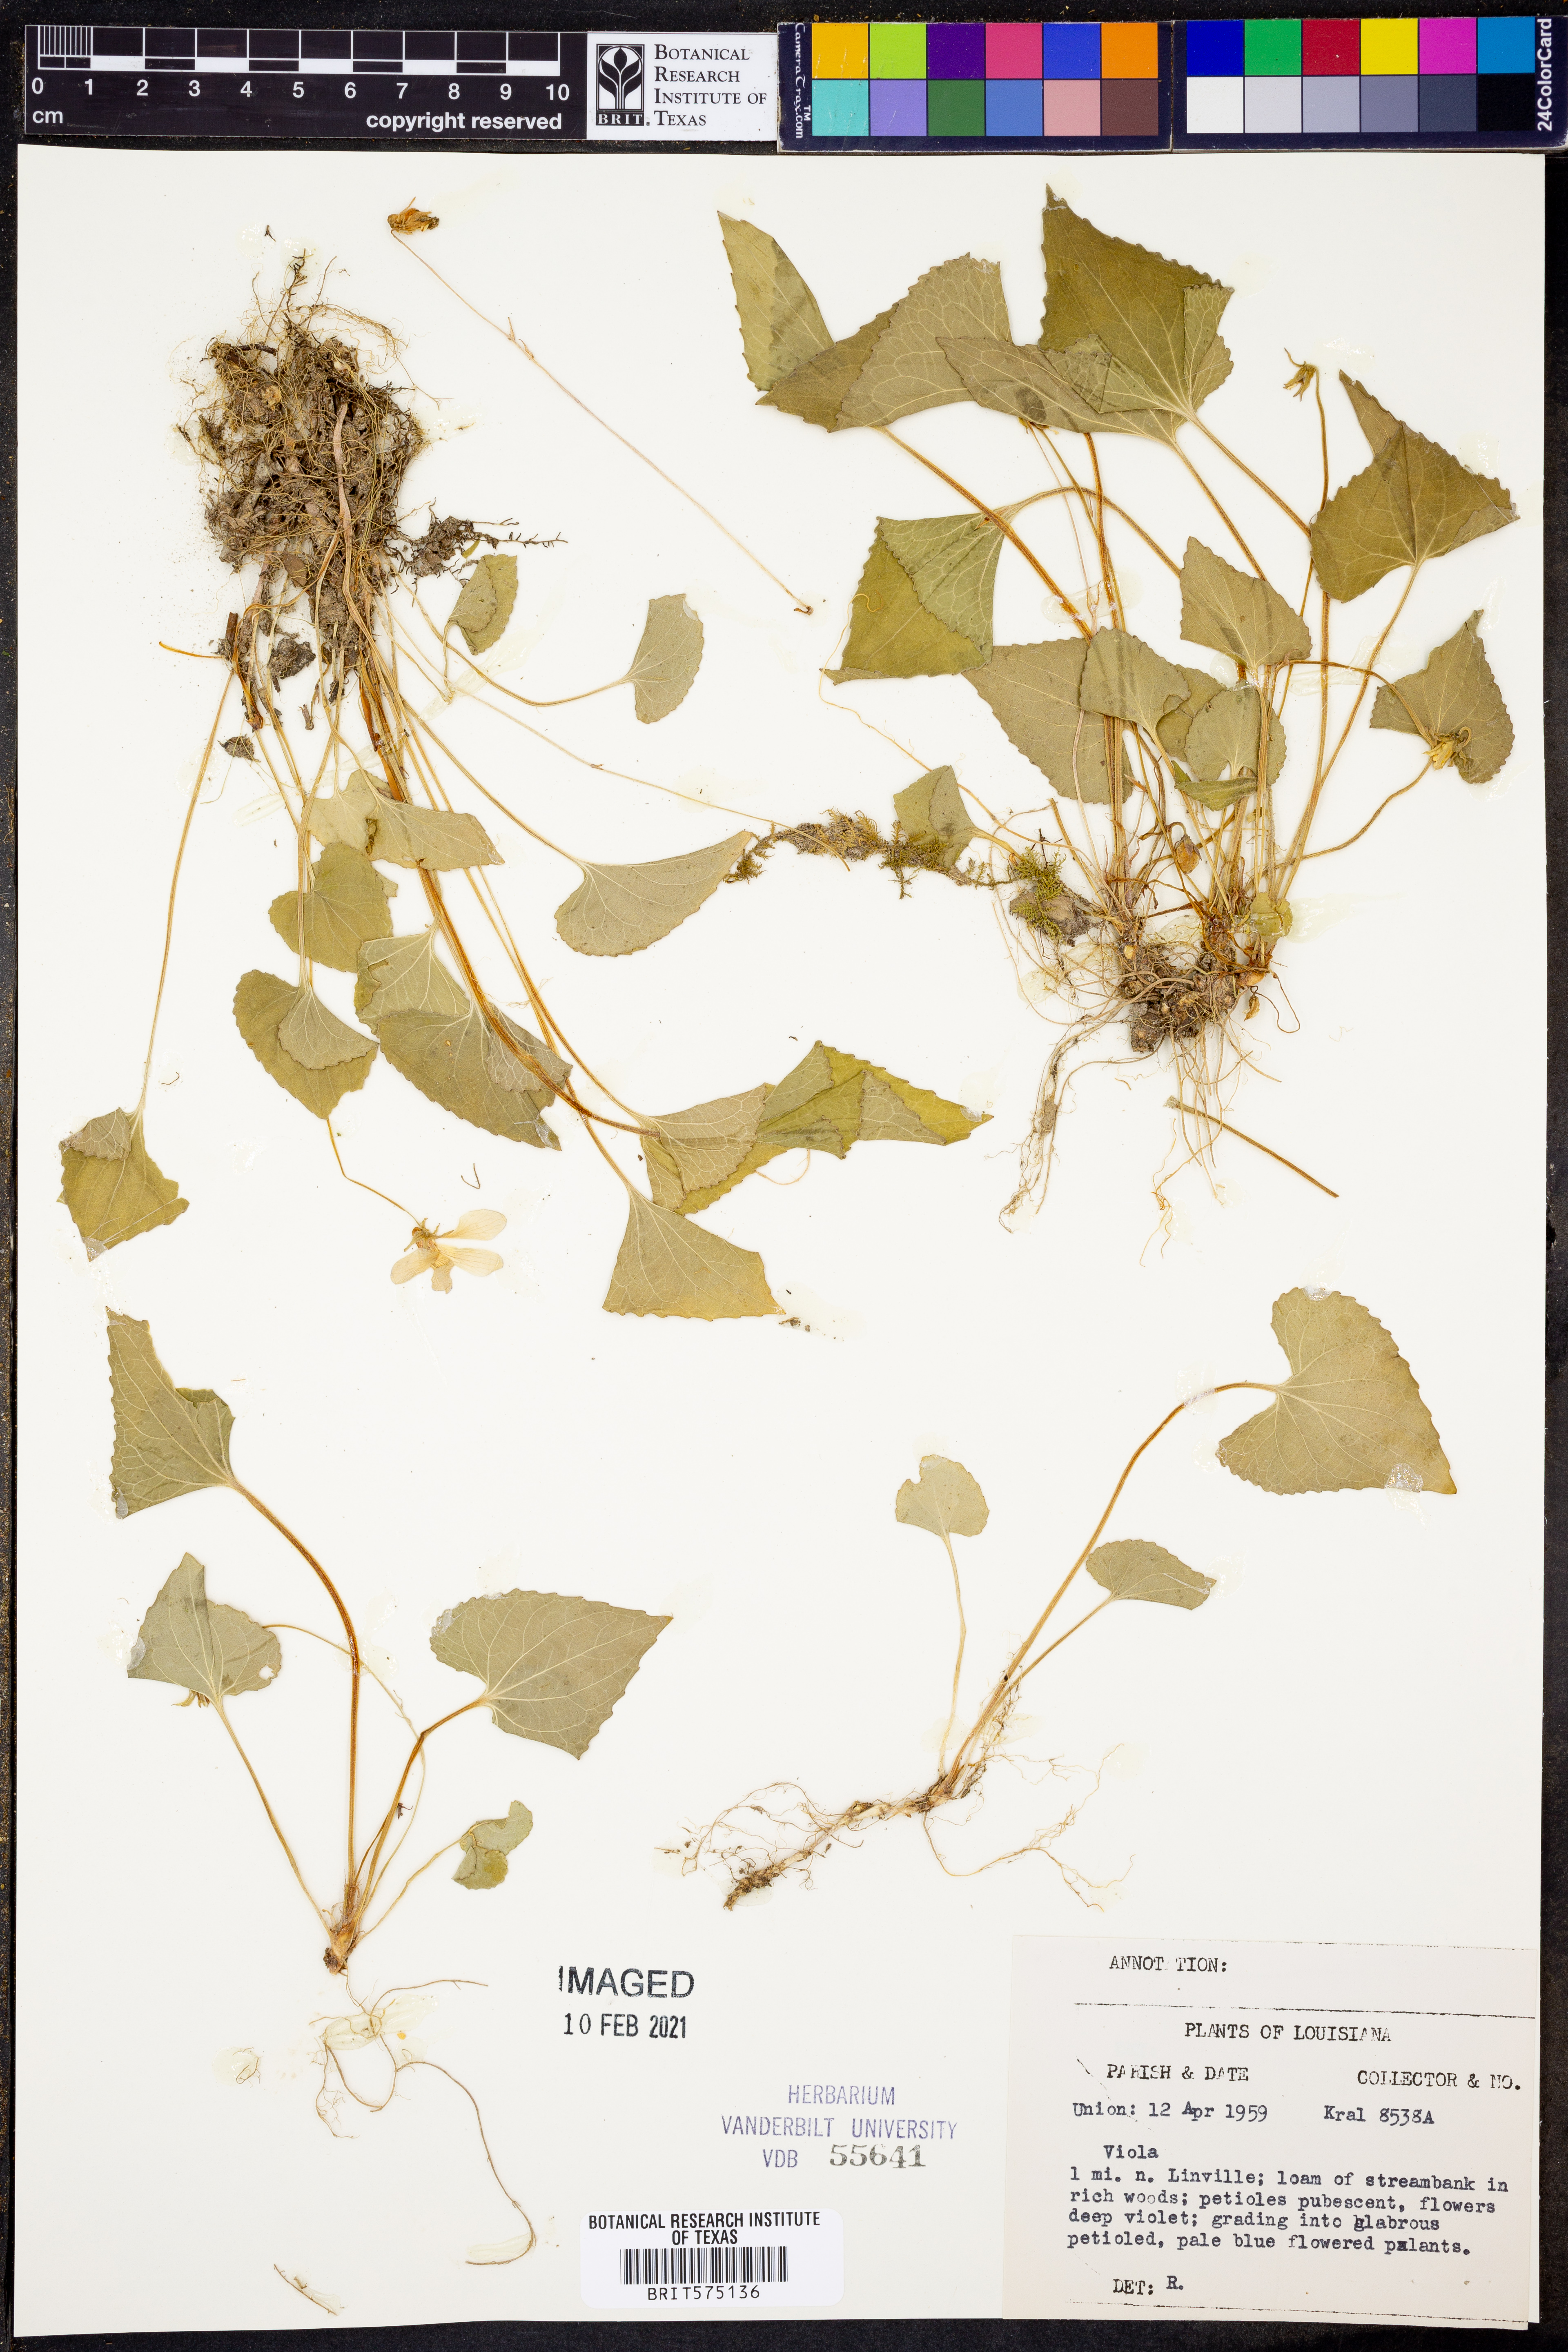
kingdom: Plantae
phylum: Tracheophyta
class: Magnoliopsida
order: Malpighiales
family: Violaceae
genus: Viola
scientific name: Viola
